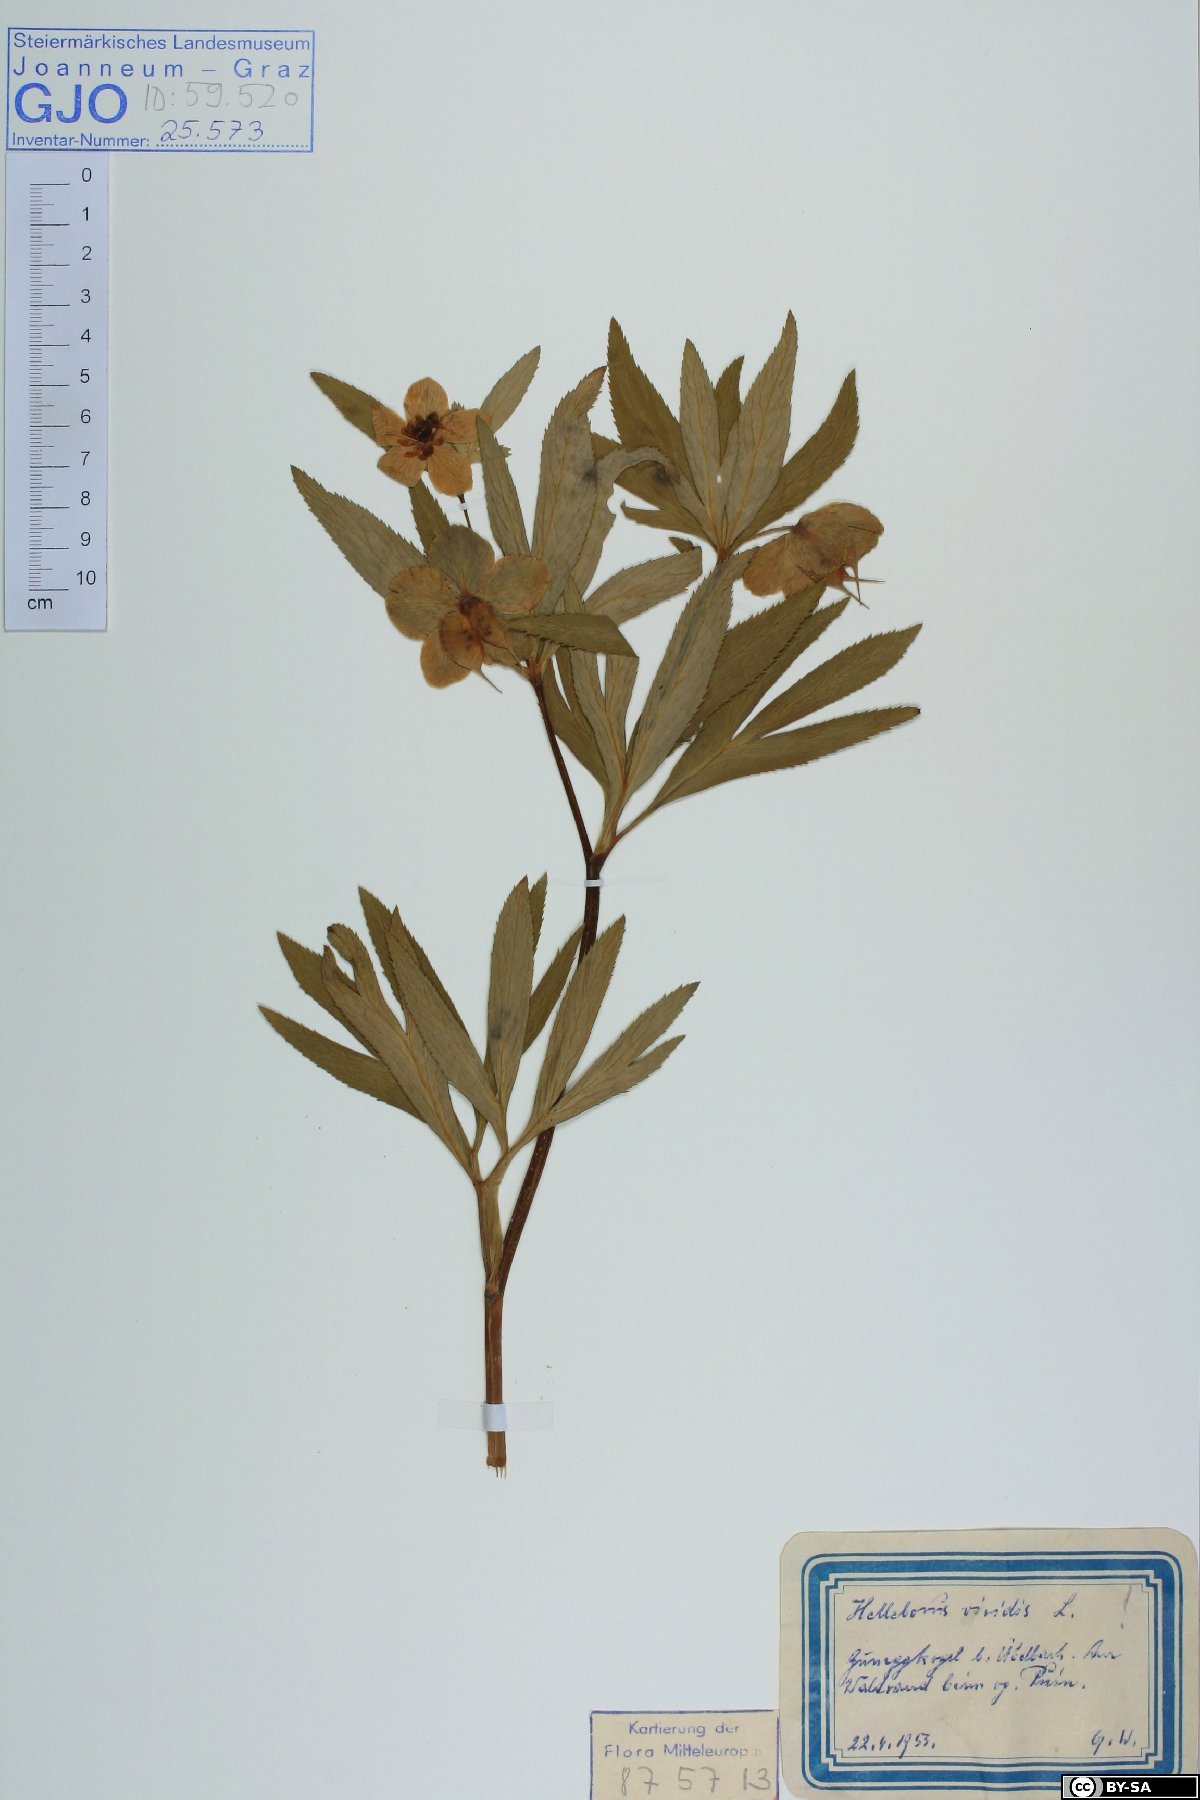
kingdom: Plantae
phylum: Tracheophyta
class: Magnoliopsida
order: Ranunculales
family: Ranunculaceae
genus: Helleborus
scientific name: Helleborus dumetorum
